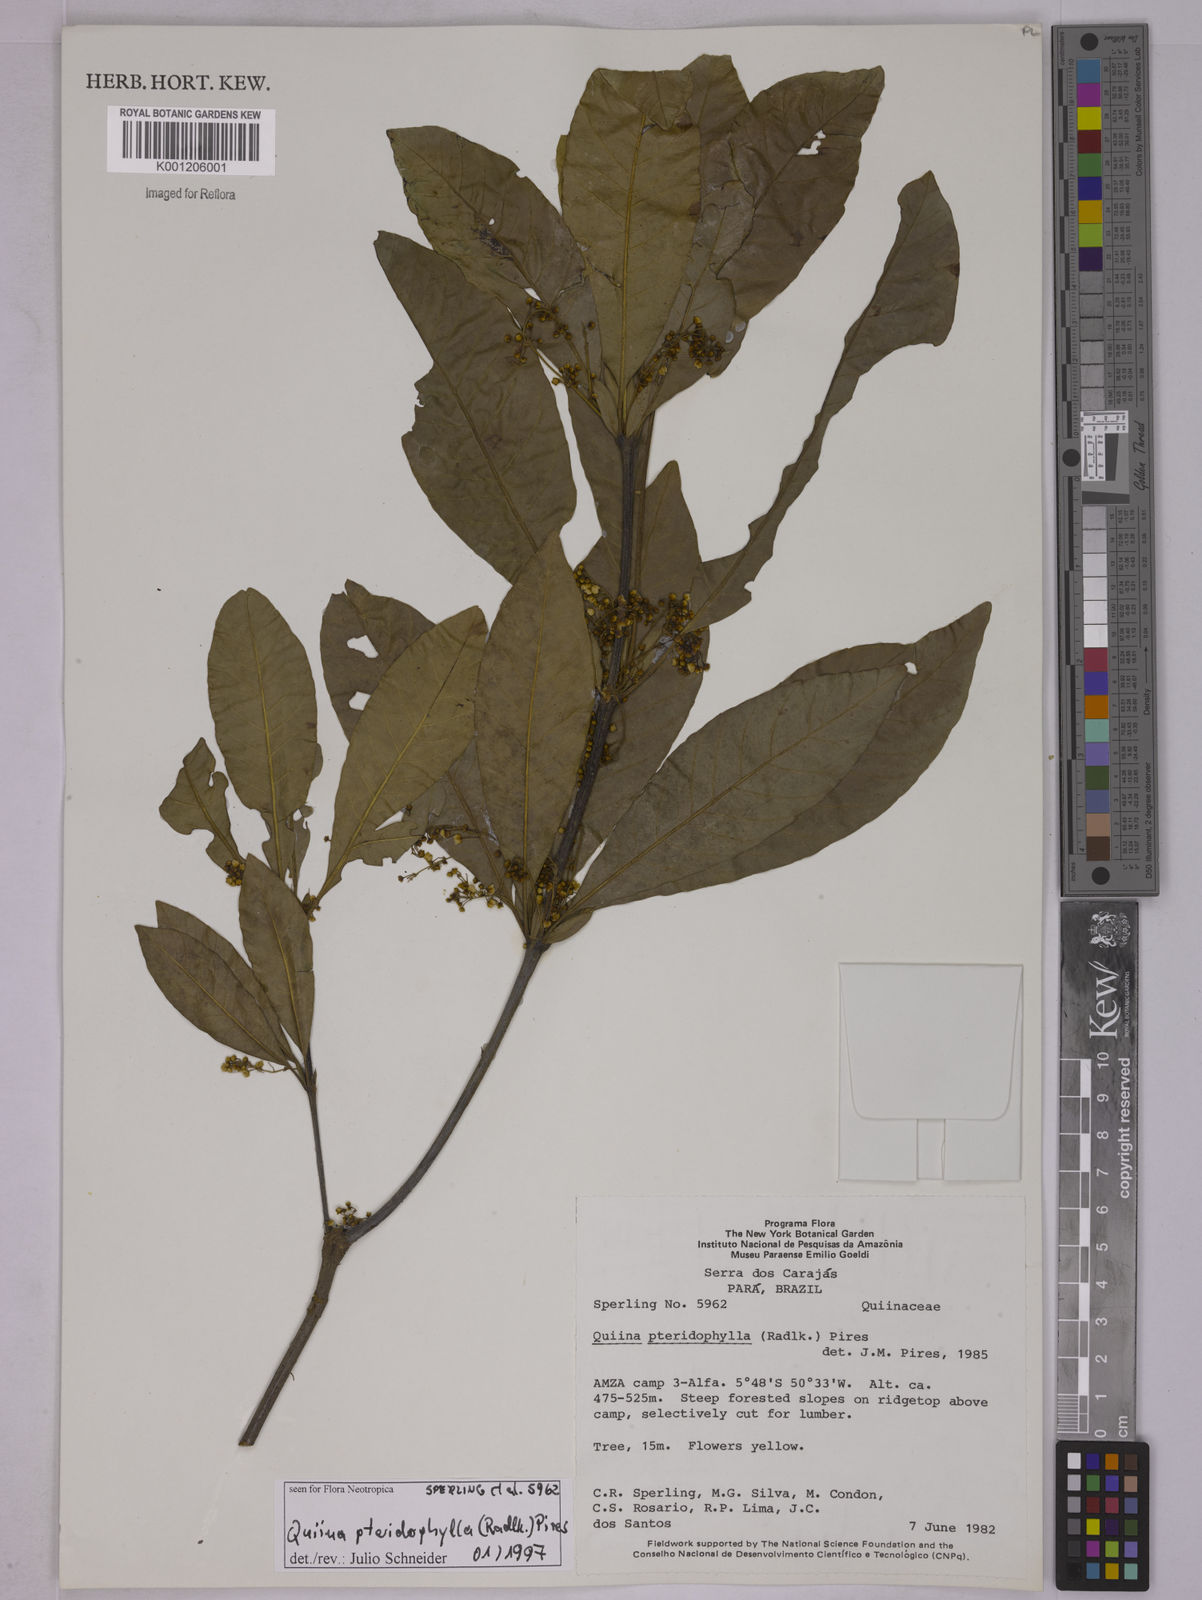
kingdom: Plantae
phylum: Tracheophyta
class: Magnoliopsida
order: Malpighiales
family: Quiinaceae
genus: Quiina
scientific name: Quiina pteridophylla
